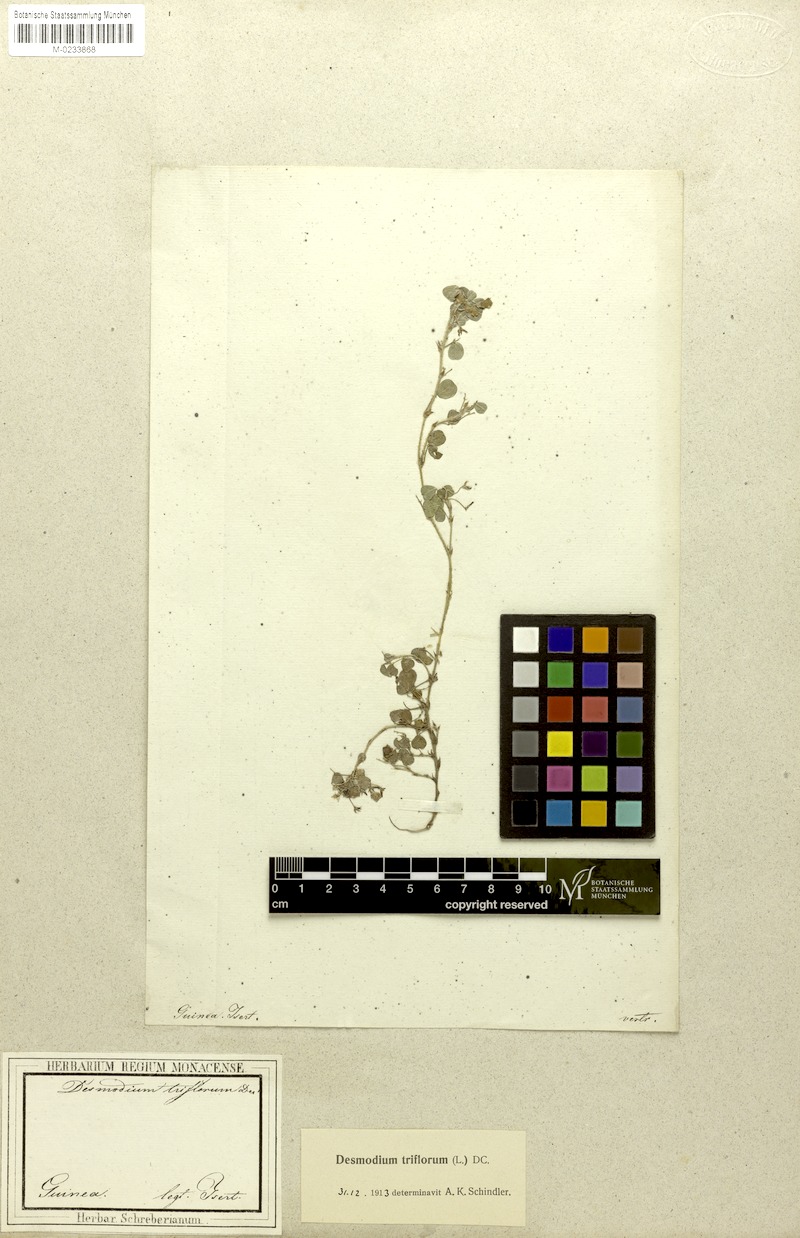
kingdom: Plantae
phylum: Tracheophyta
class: Magnoliopsida
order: Fabales
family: Fabaceae
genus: Grona
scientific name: Grona triflora
